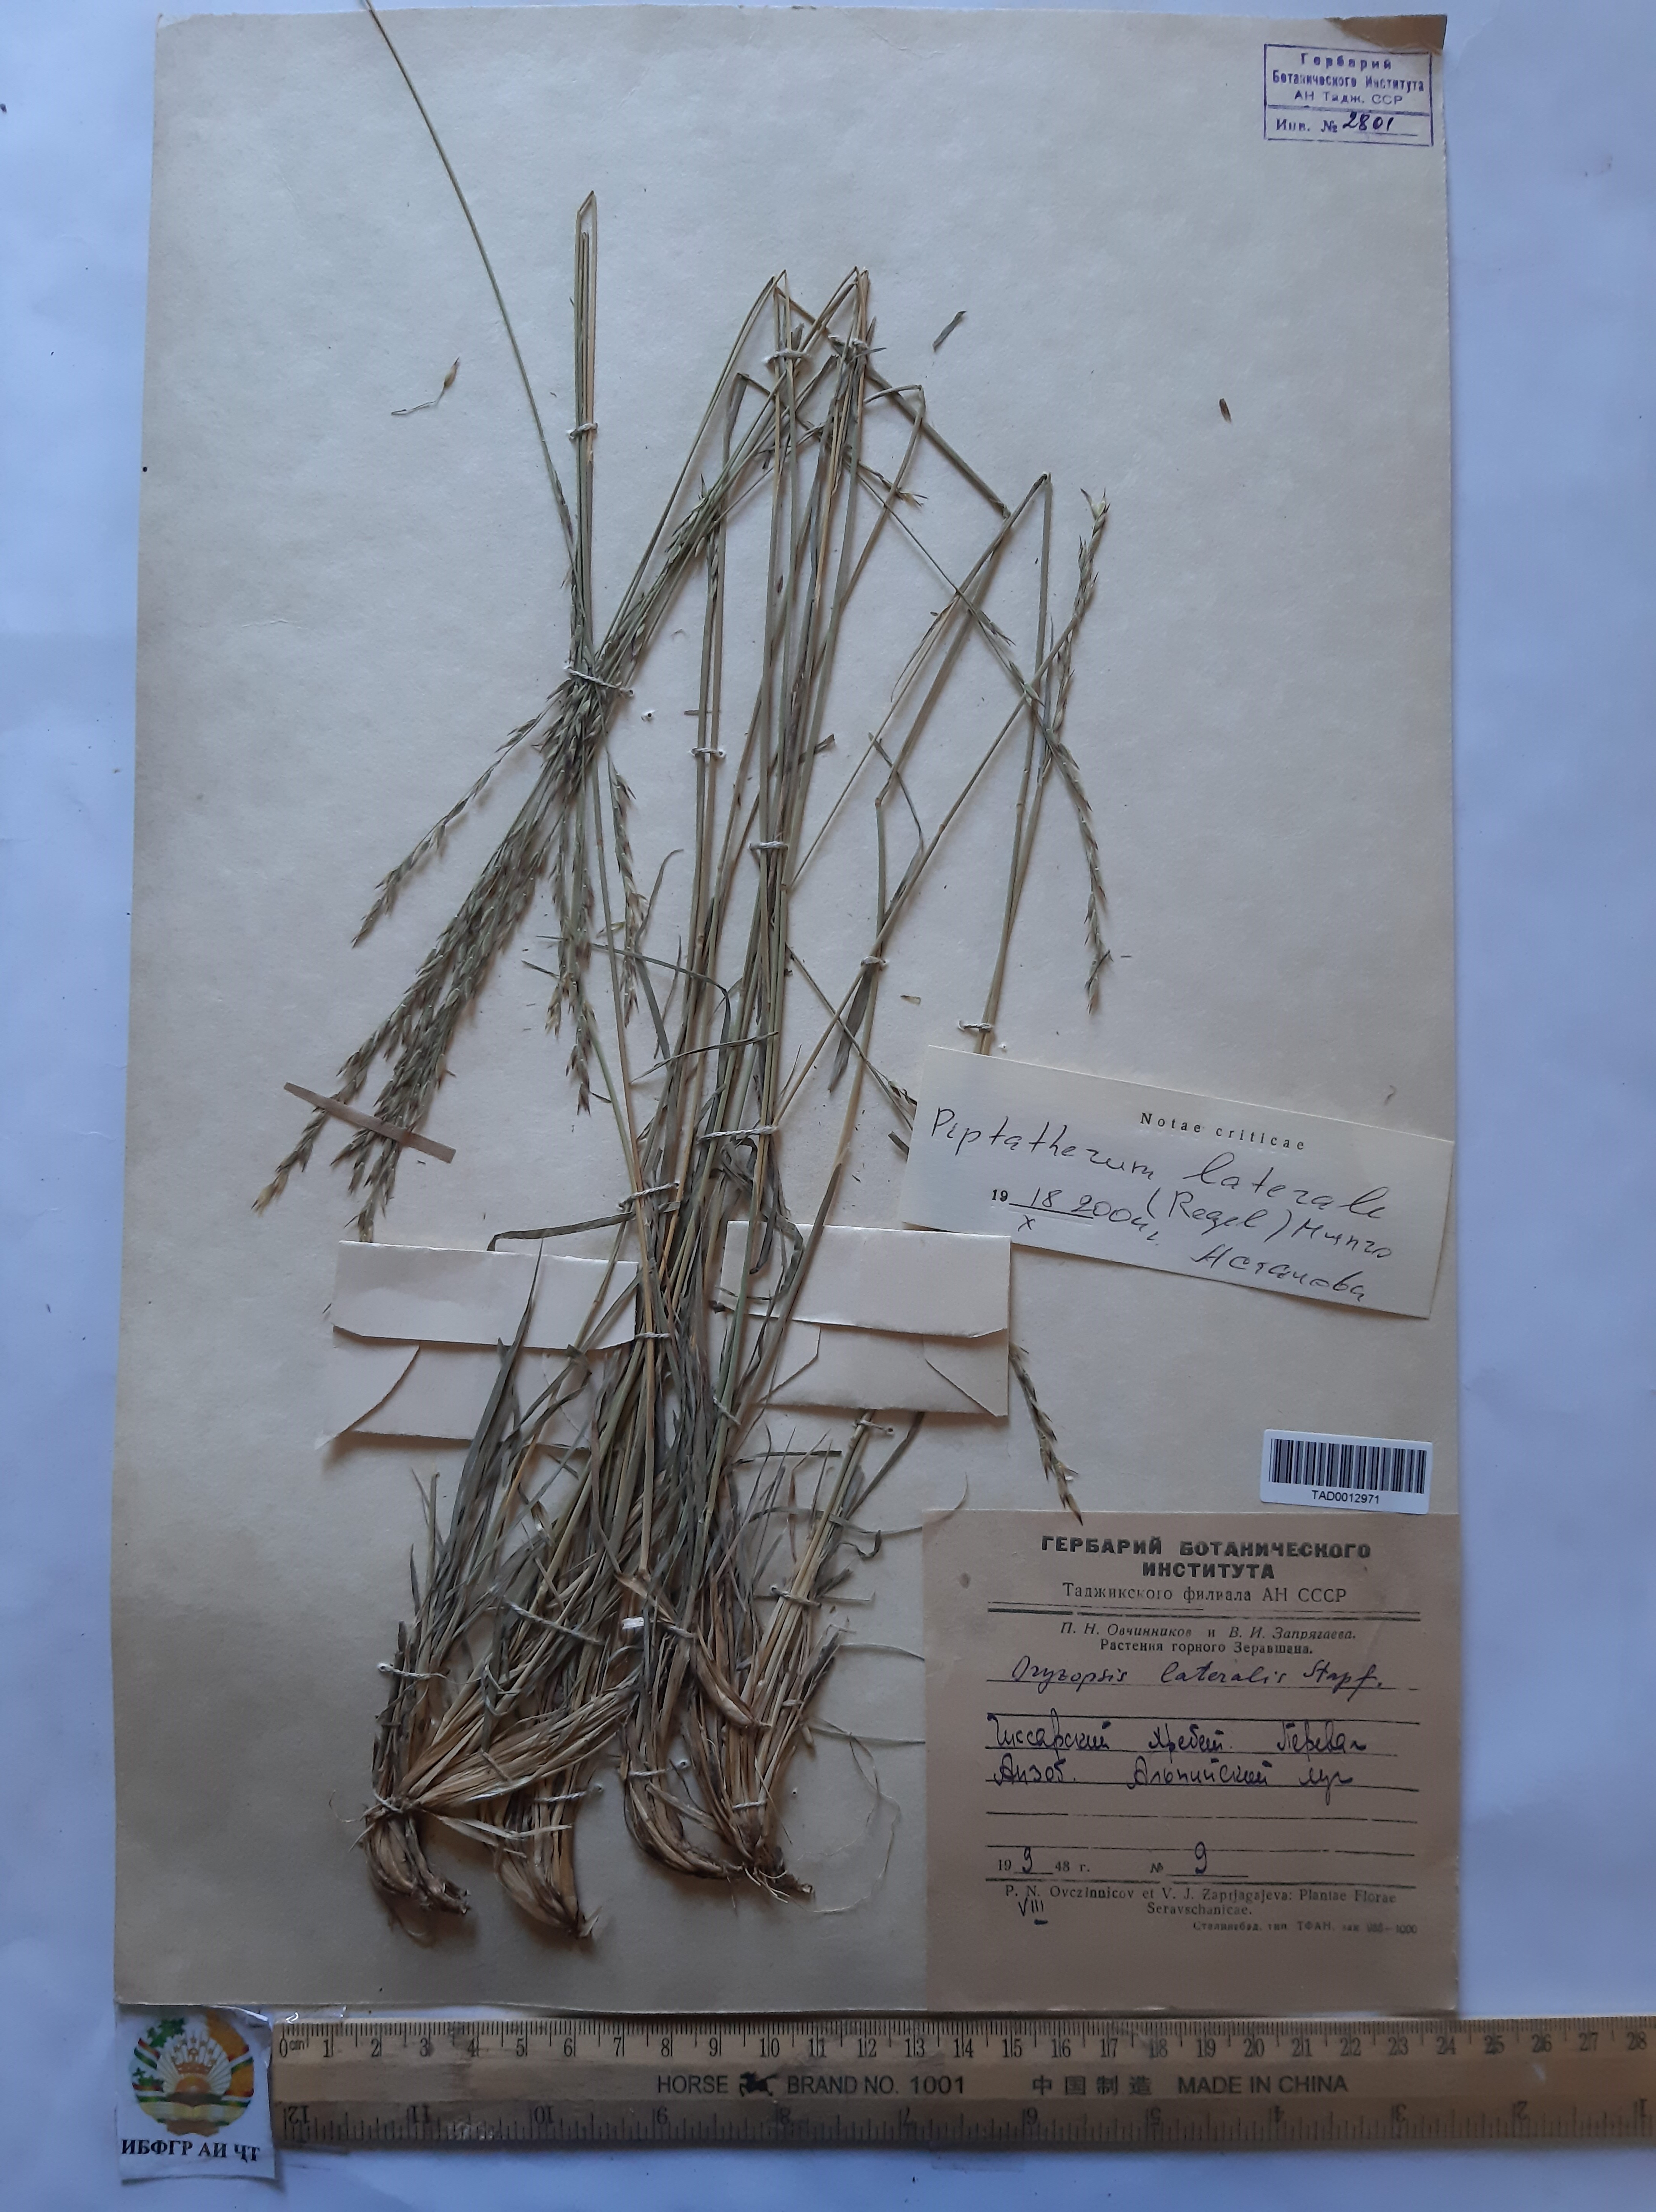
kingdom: Plantae
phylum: Tracheophyta
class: Liliopsida
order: Poales
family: Poaceae
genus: Piptatherum
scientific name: Piptatherum laterale
